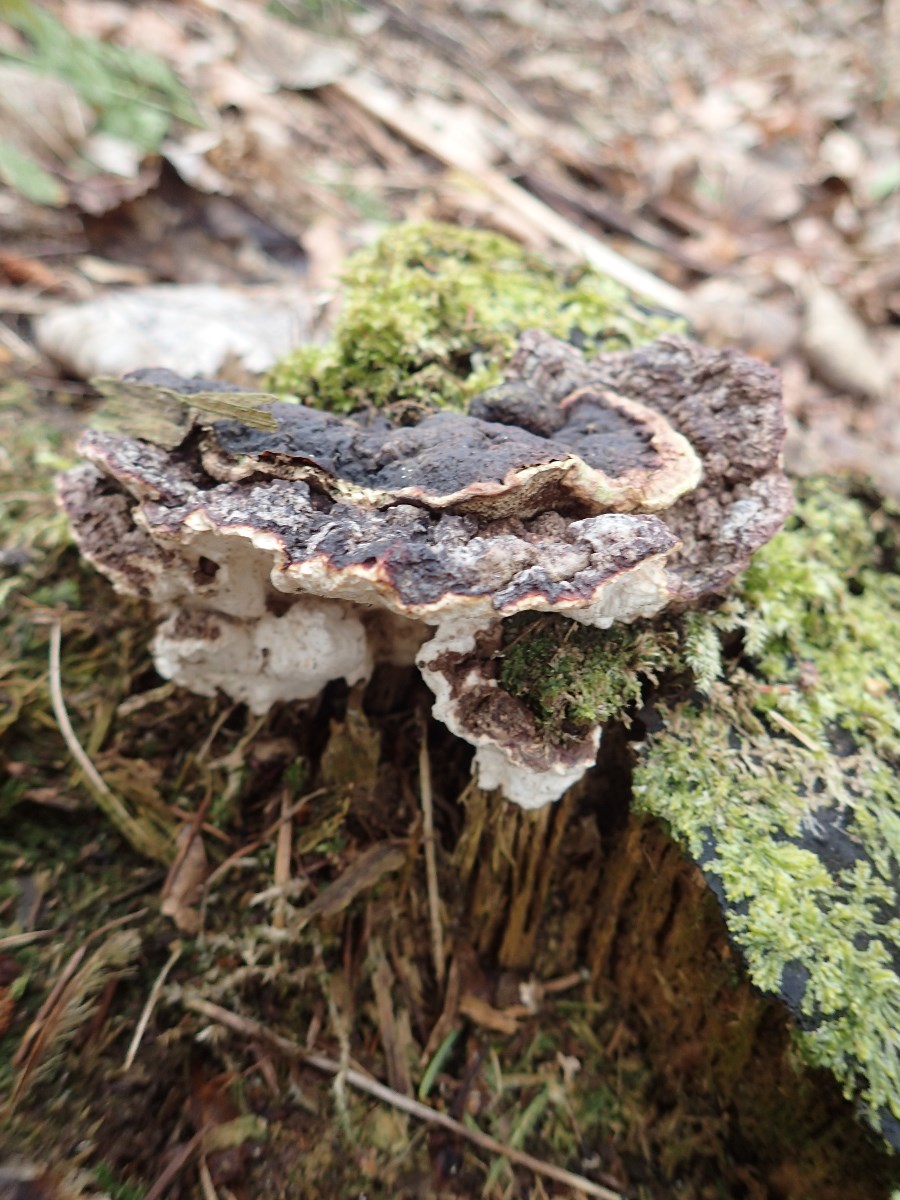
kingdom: Fungi
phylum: Basidiomycota
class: Agaricomycetes
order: Russulales
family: Bondarzewiaceae
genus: Heterobasidion
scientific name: Heterobasidion annosum
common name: almindelig rodfordærver
